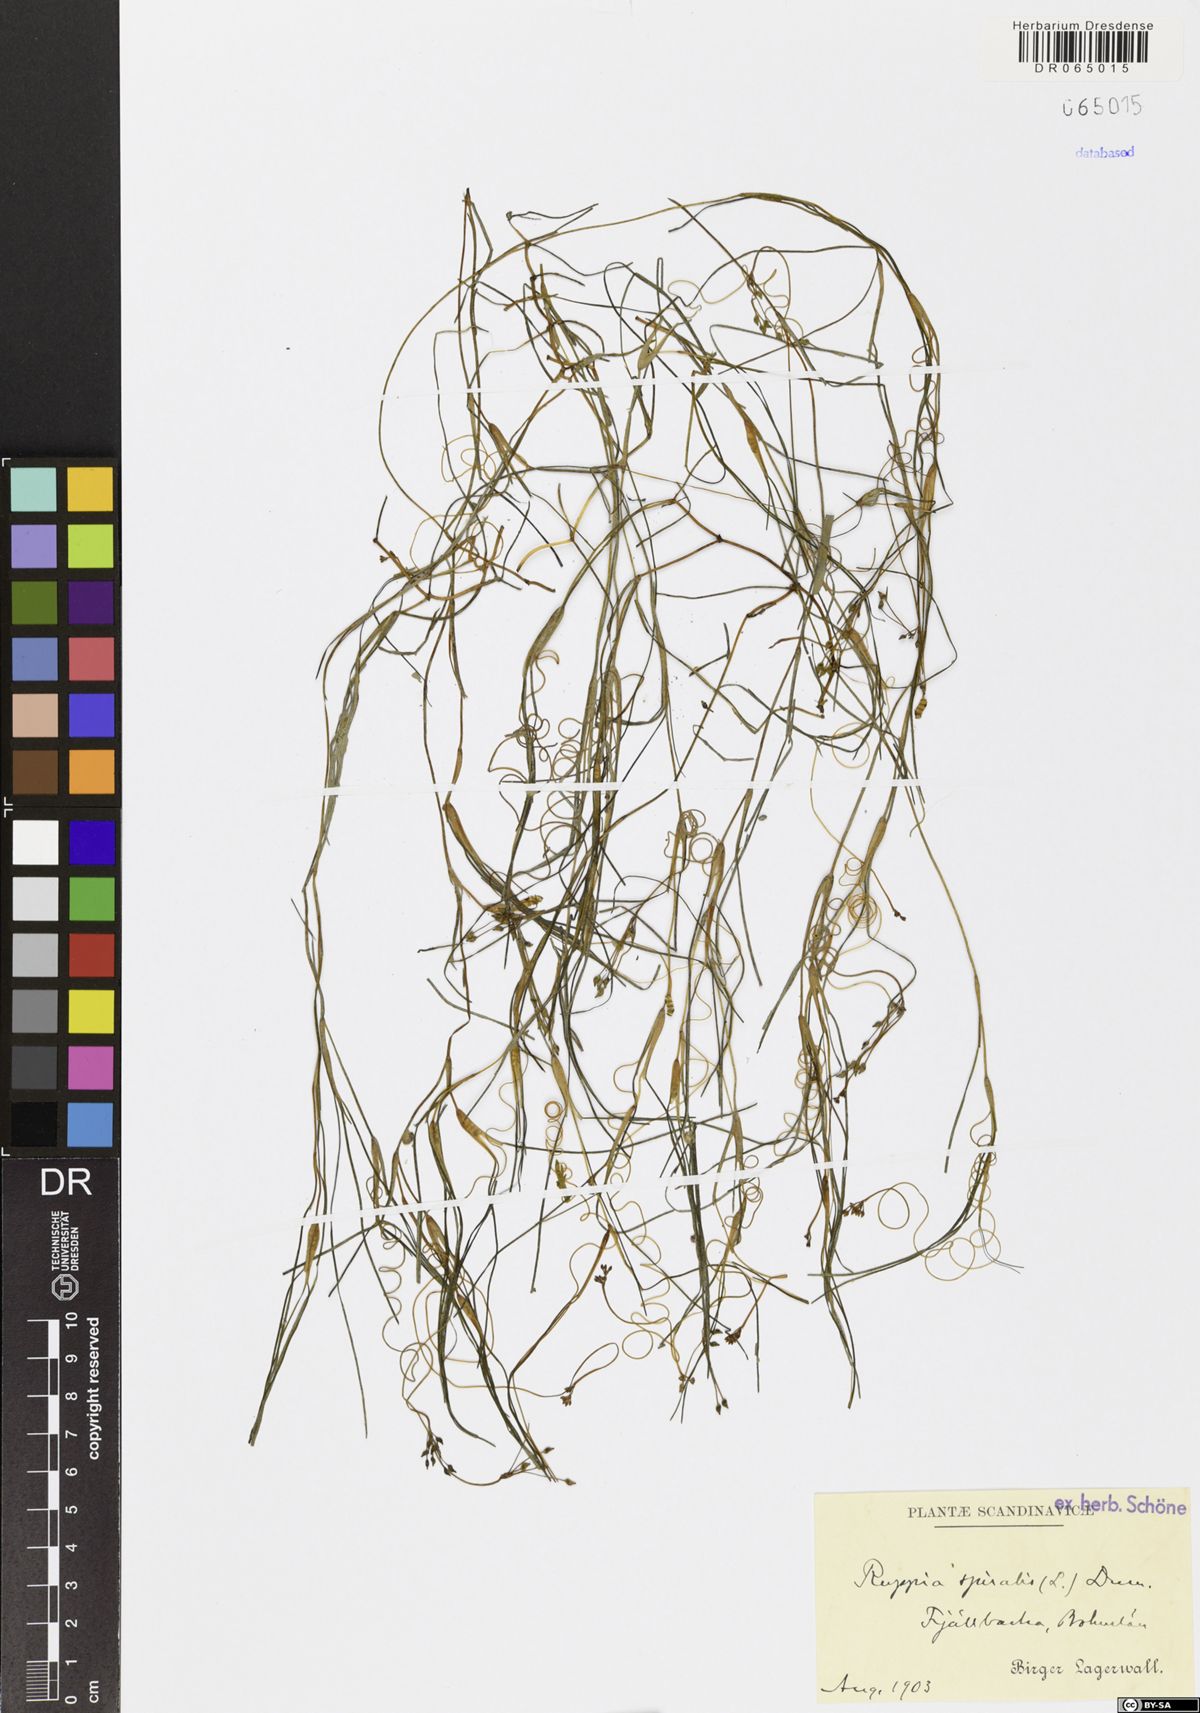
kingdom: Plantae
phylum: Tracheophyta
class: Liliopsida
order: Alismatales
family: Ruppiaceae
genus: Ruppia
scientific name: Ruppia cirrhosa
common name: Spiral tasselweed
